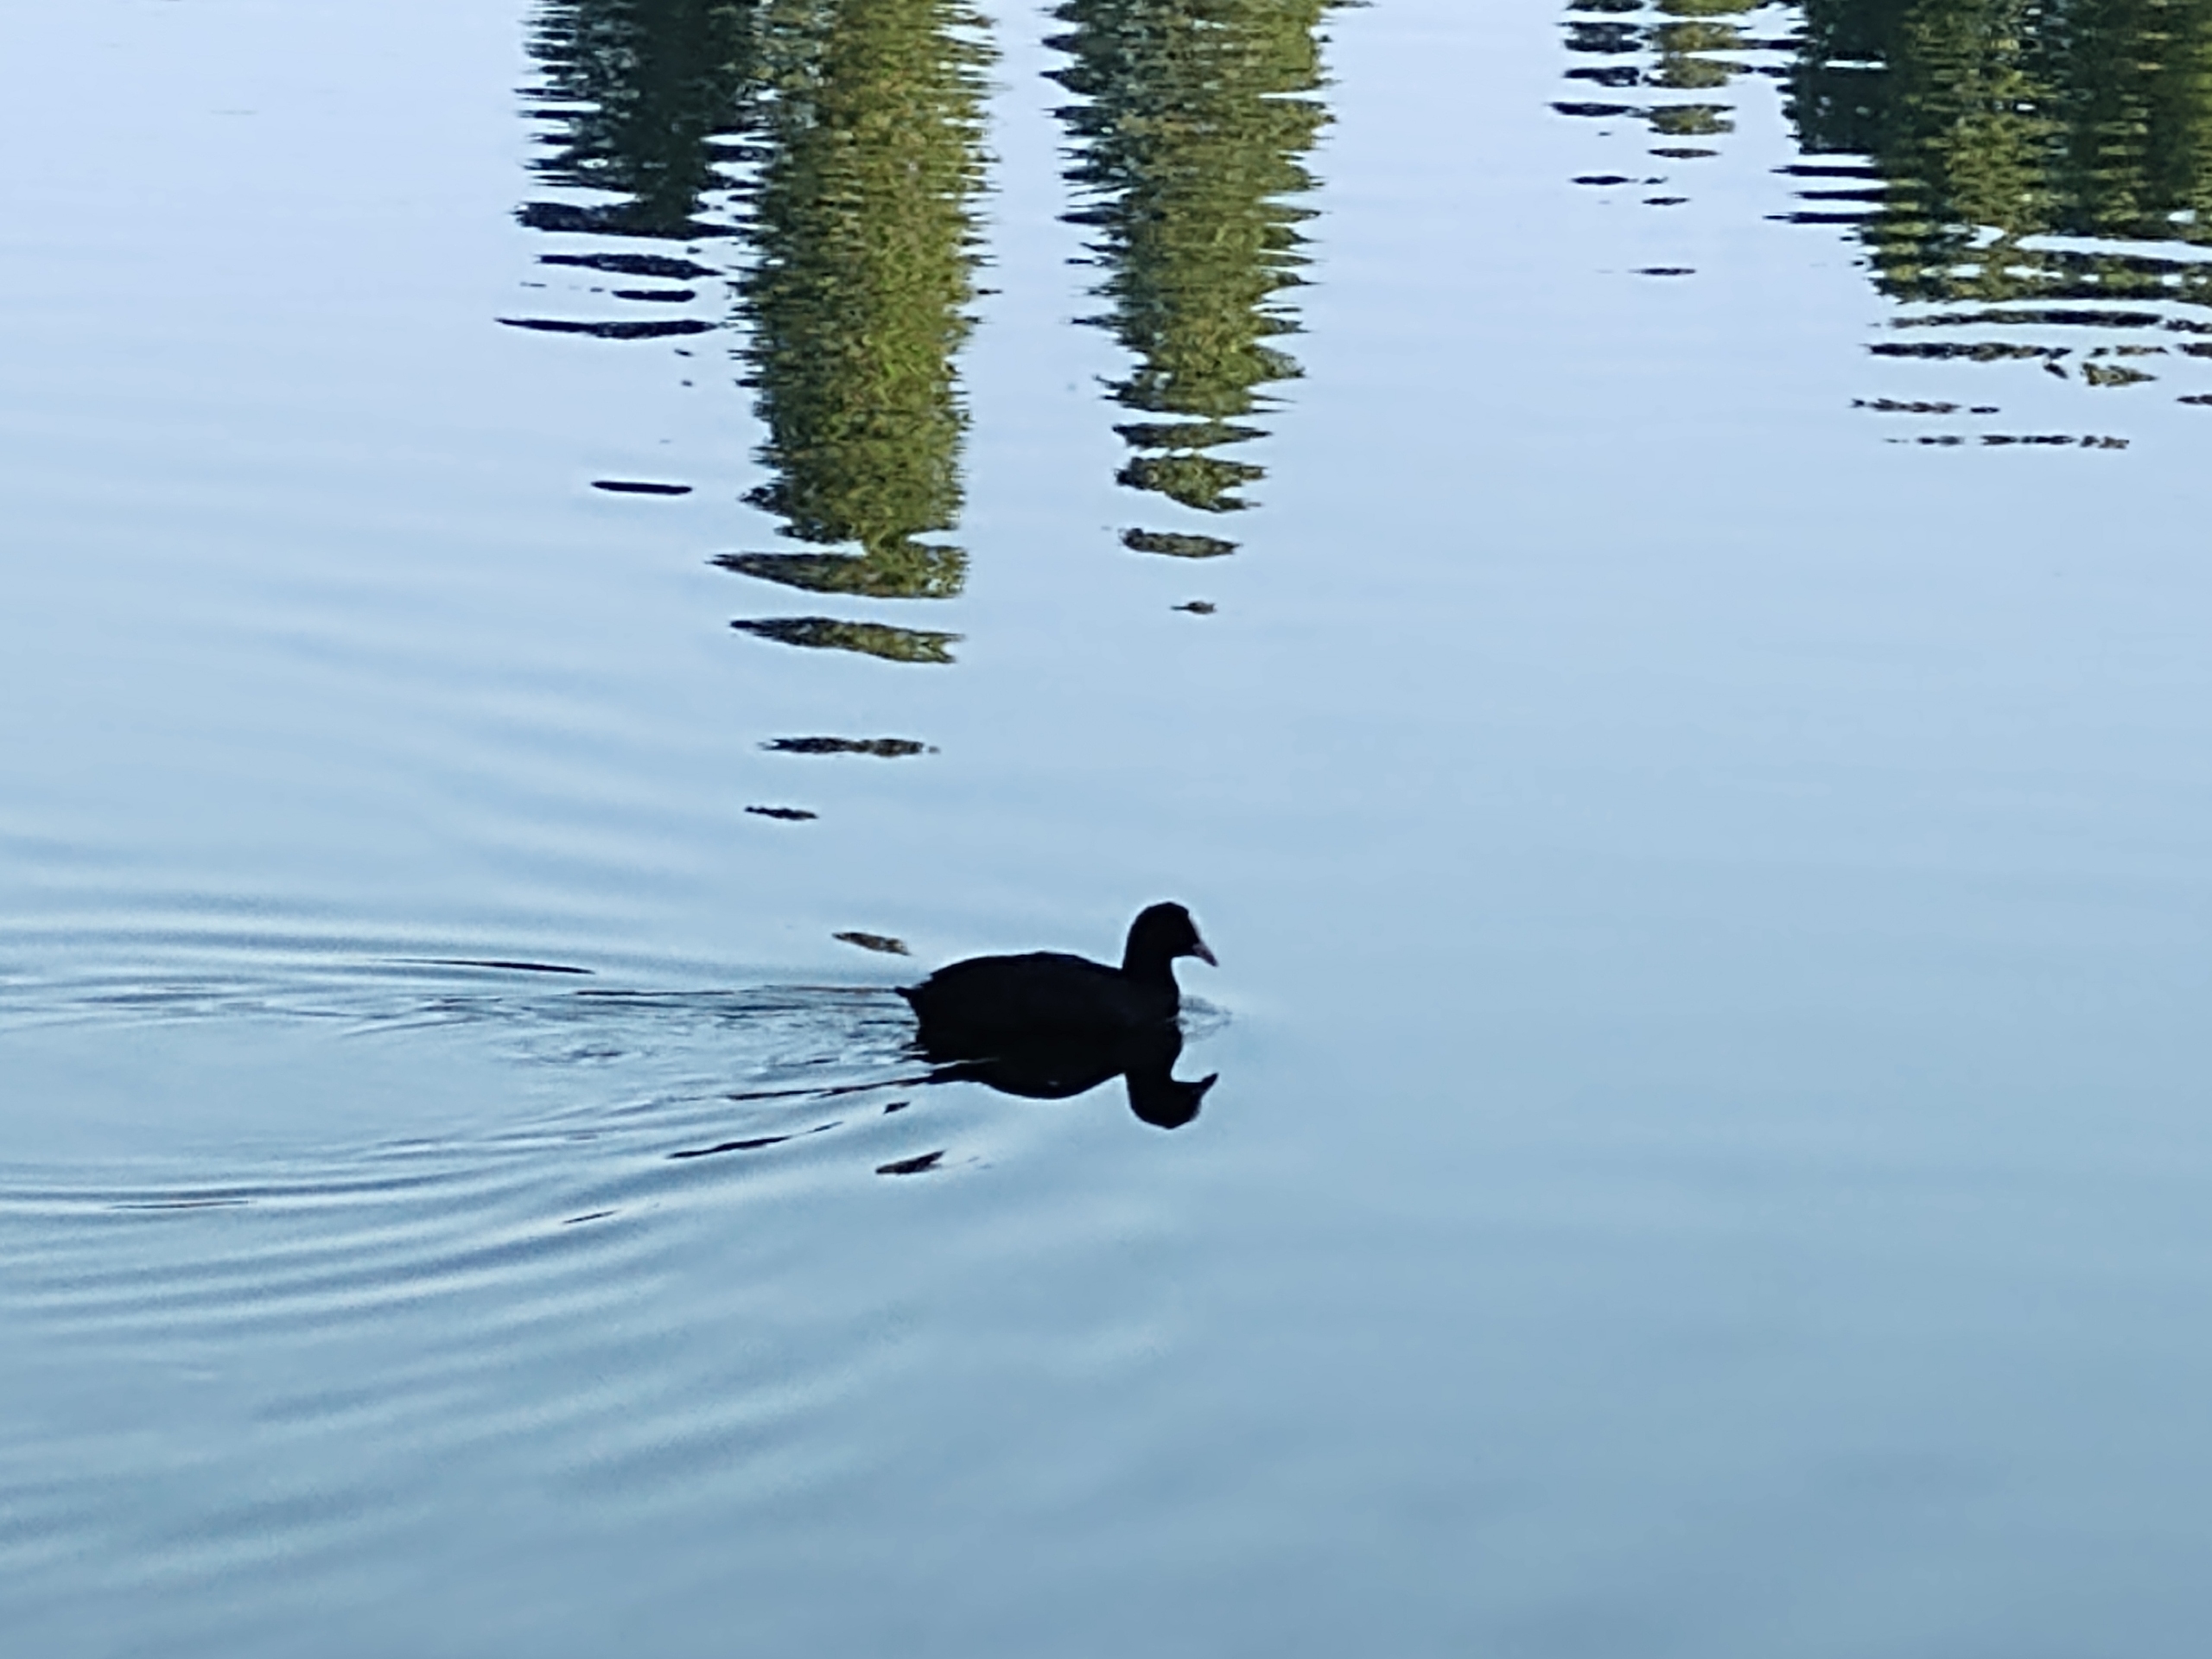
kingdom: Animalia
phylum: Chordata
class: Aves
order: Gruiformes
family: Rallidae
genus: Fulica
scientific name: Fulica atra
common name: Blishøne
